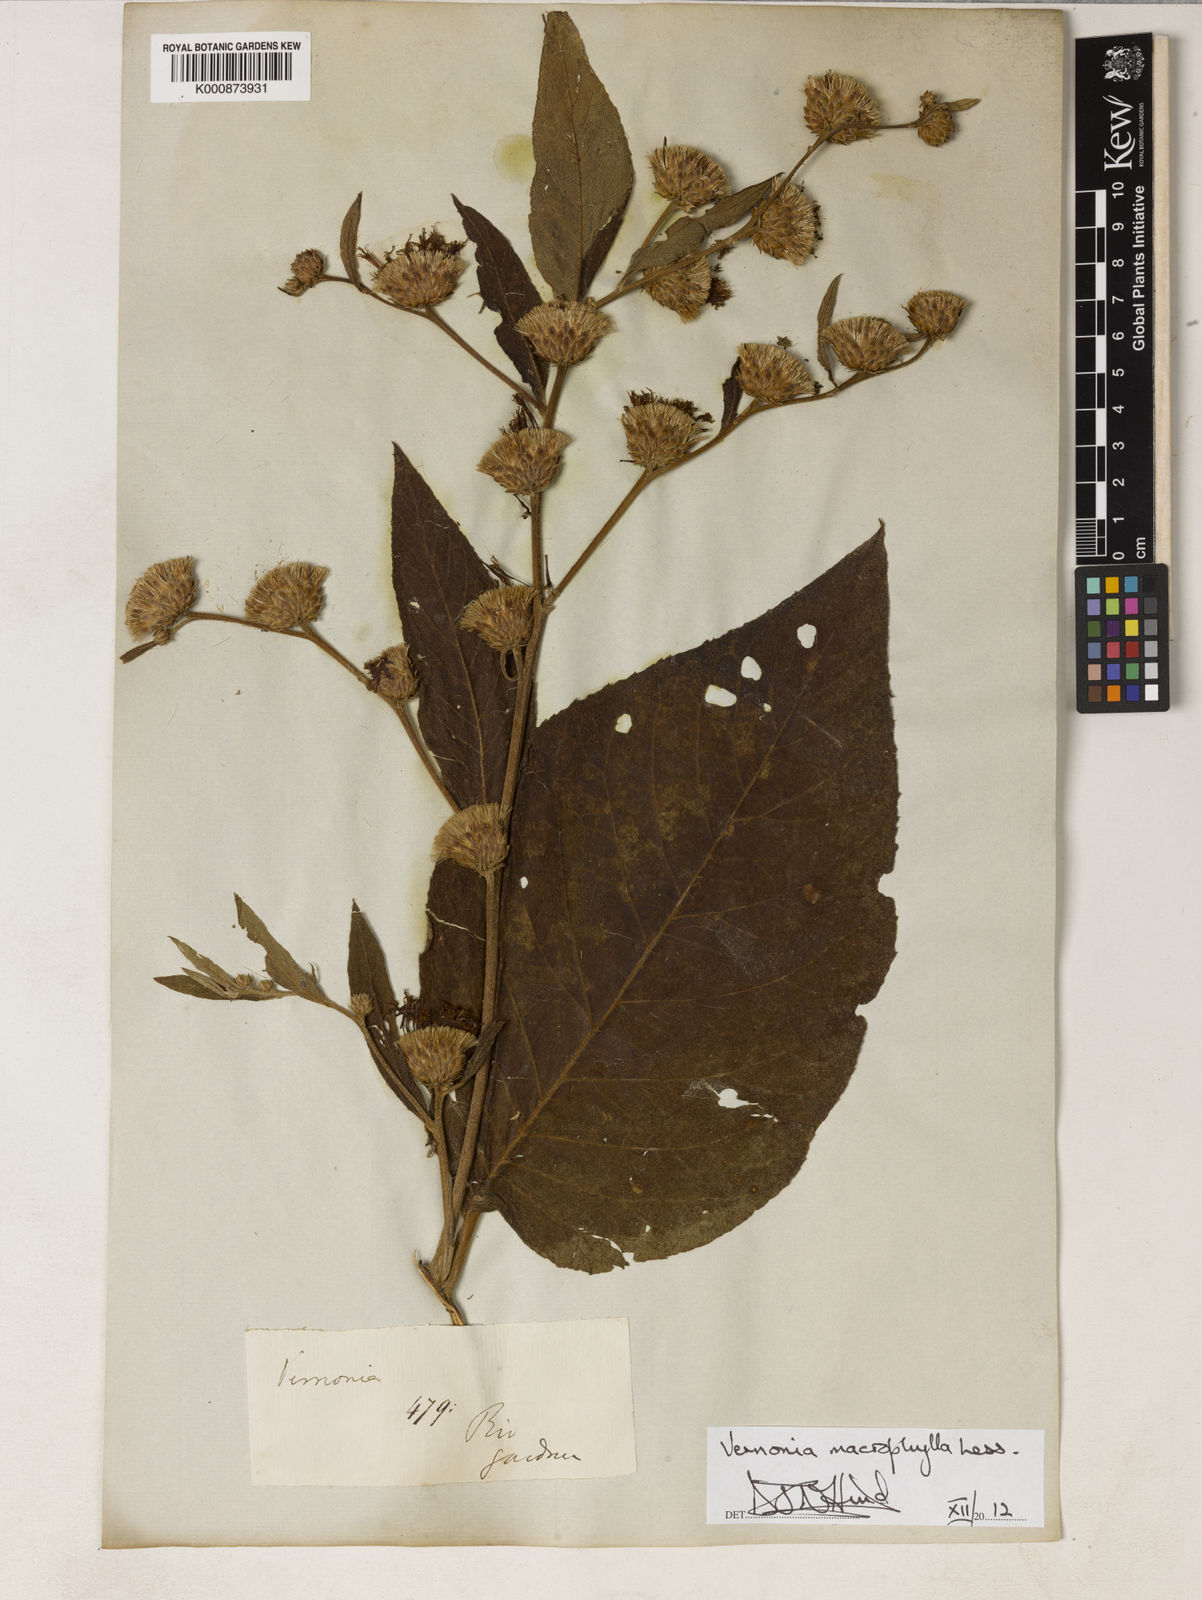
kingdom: Plantae
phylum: Tracheophyta
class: Magnoliopsida
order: Asterales
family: Asteraceae
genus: Lessingianthus
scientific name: Lessingianthus macrophyllus
